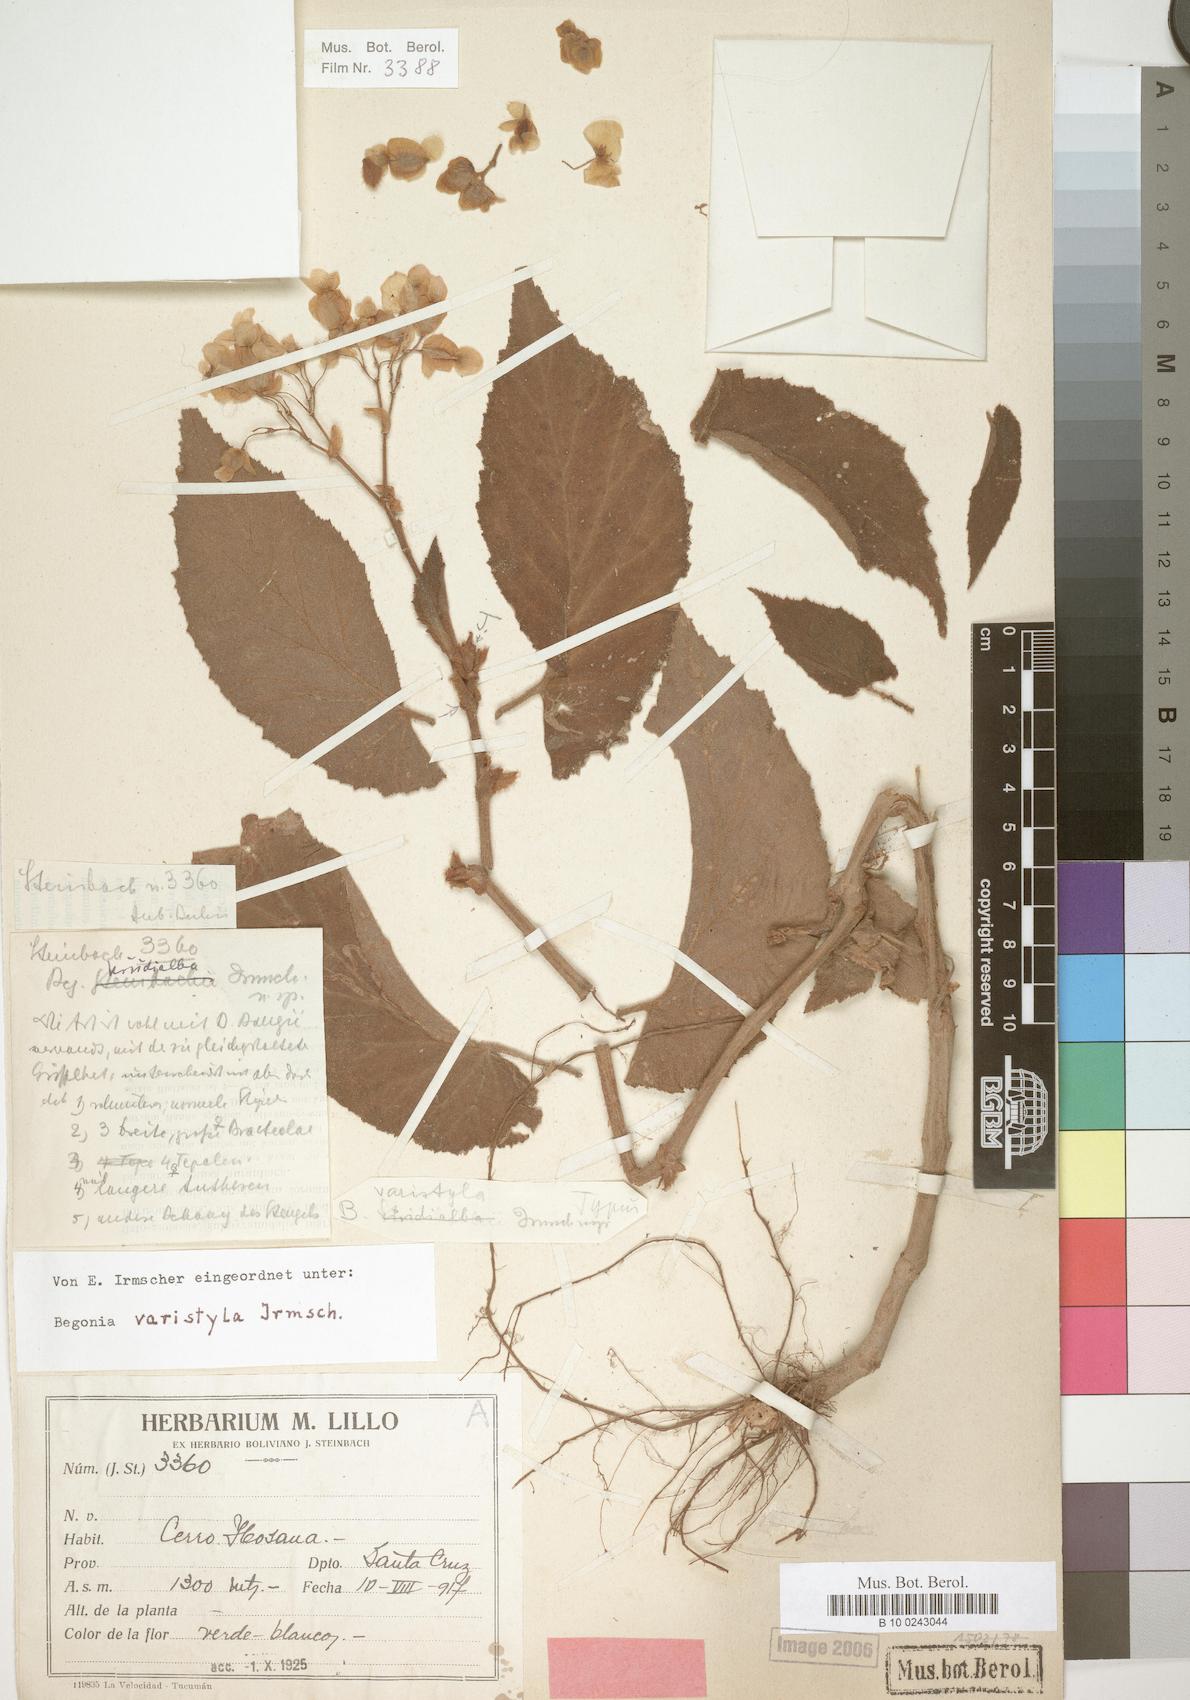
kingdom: Plantae
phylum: Tracheophyta
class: Magnoliopsida
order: Cucurbitales
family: Begoniaceae
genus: Begonia
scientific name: Begonia varistyla
